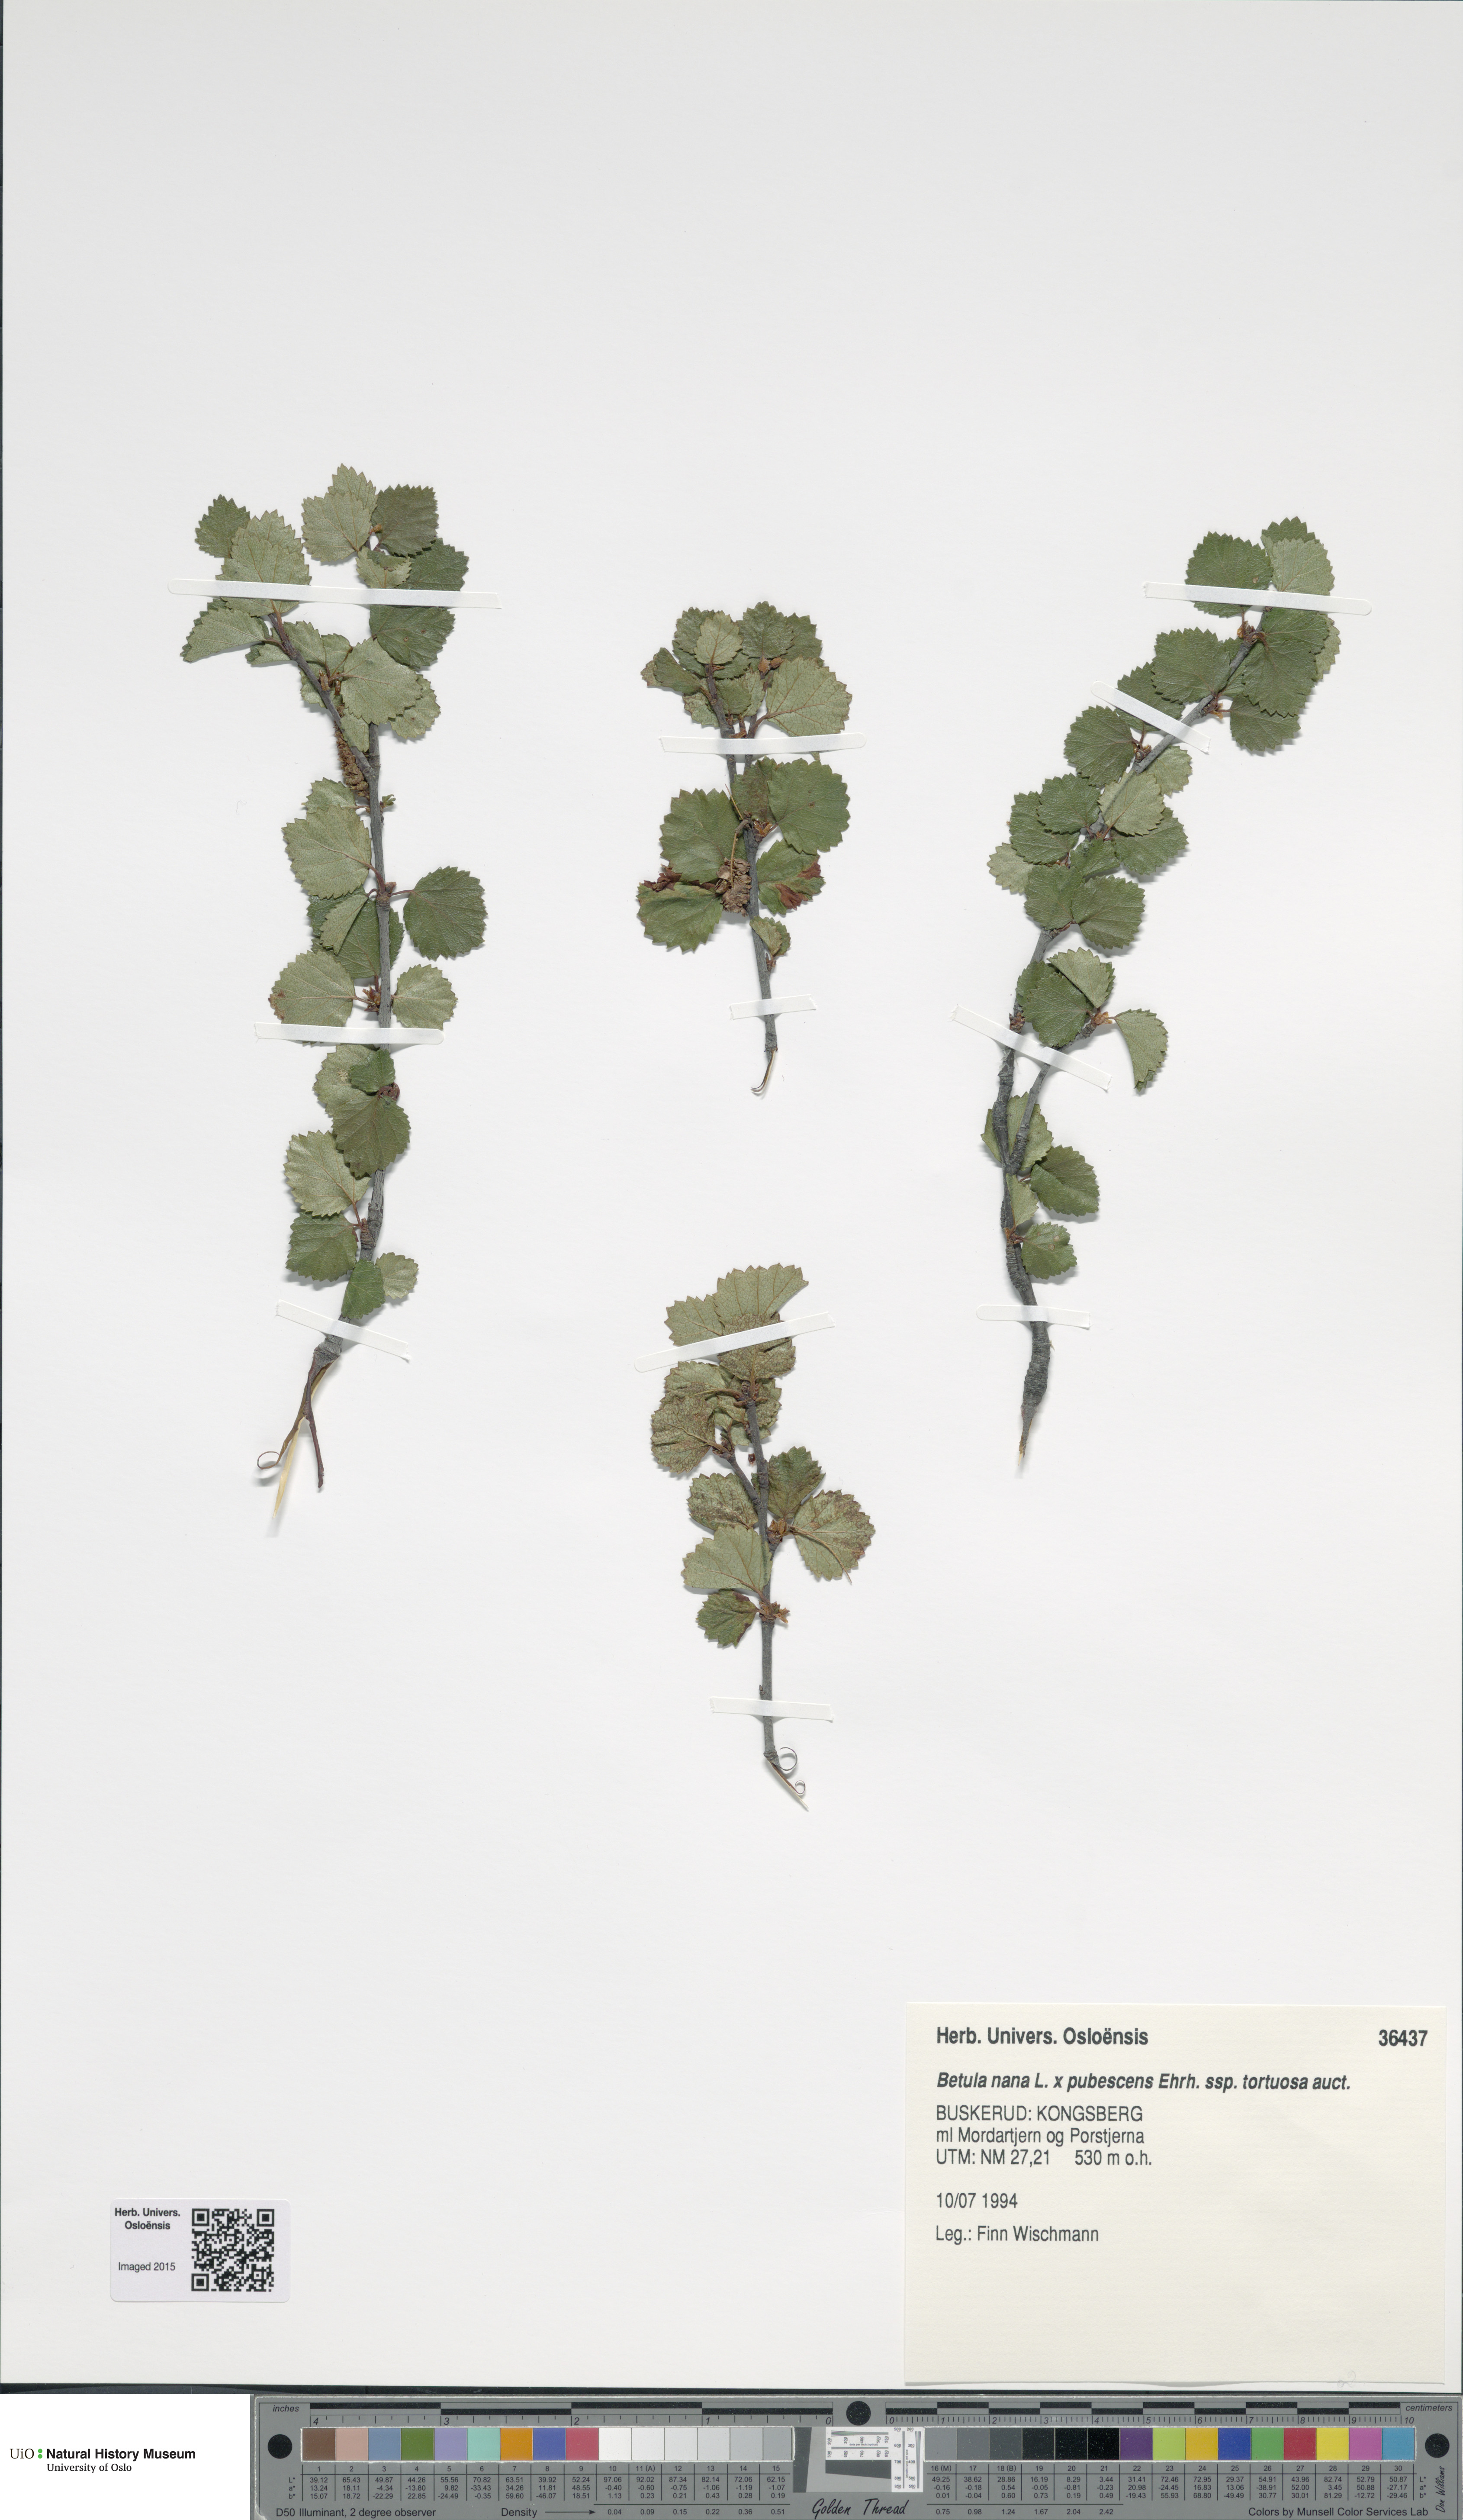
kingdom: Plantae
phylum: Tracheophyta
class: Magnoliopsida
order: Fagales
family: Betulaceae
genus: Betula
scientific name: Betula
